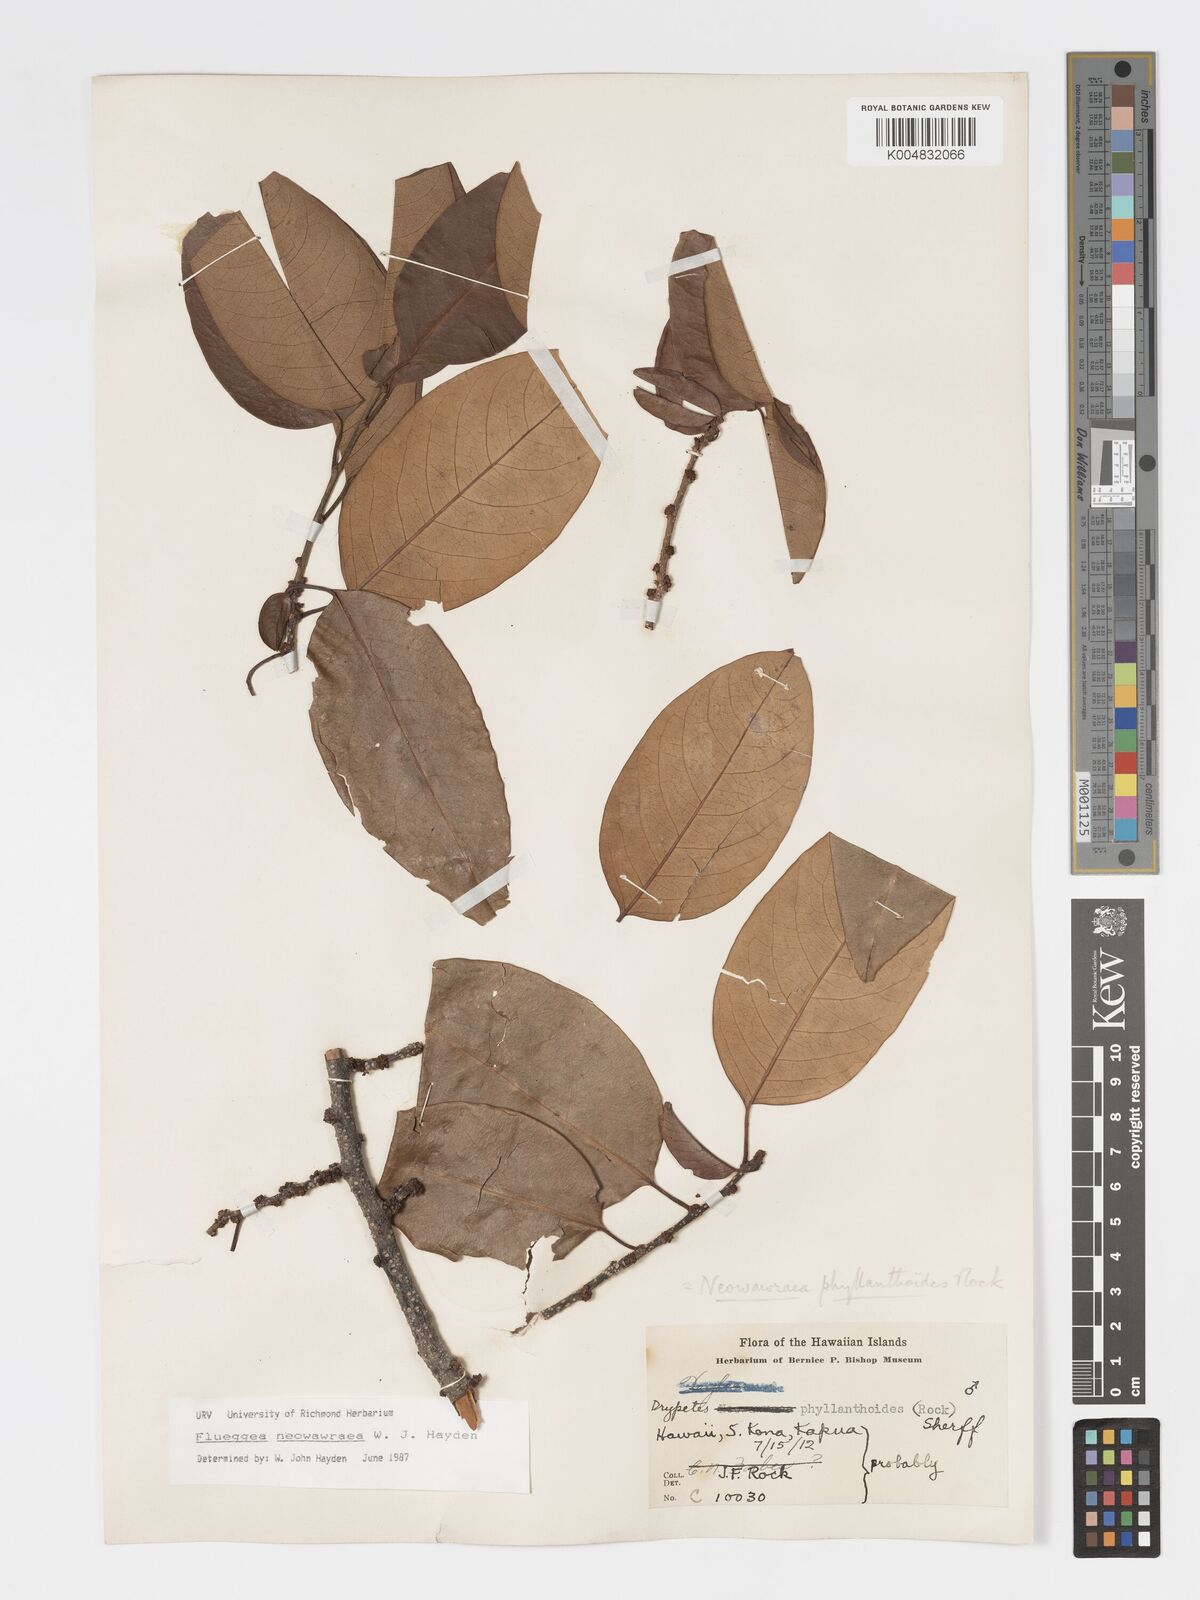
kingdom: Plantae
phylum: Tracheophyta
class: Magnoliopsida
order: Malpighiales
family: Phyllanthaceae
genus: Flueggea
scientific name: Flueggea neowawraea
